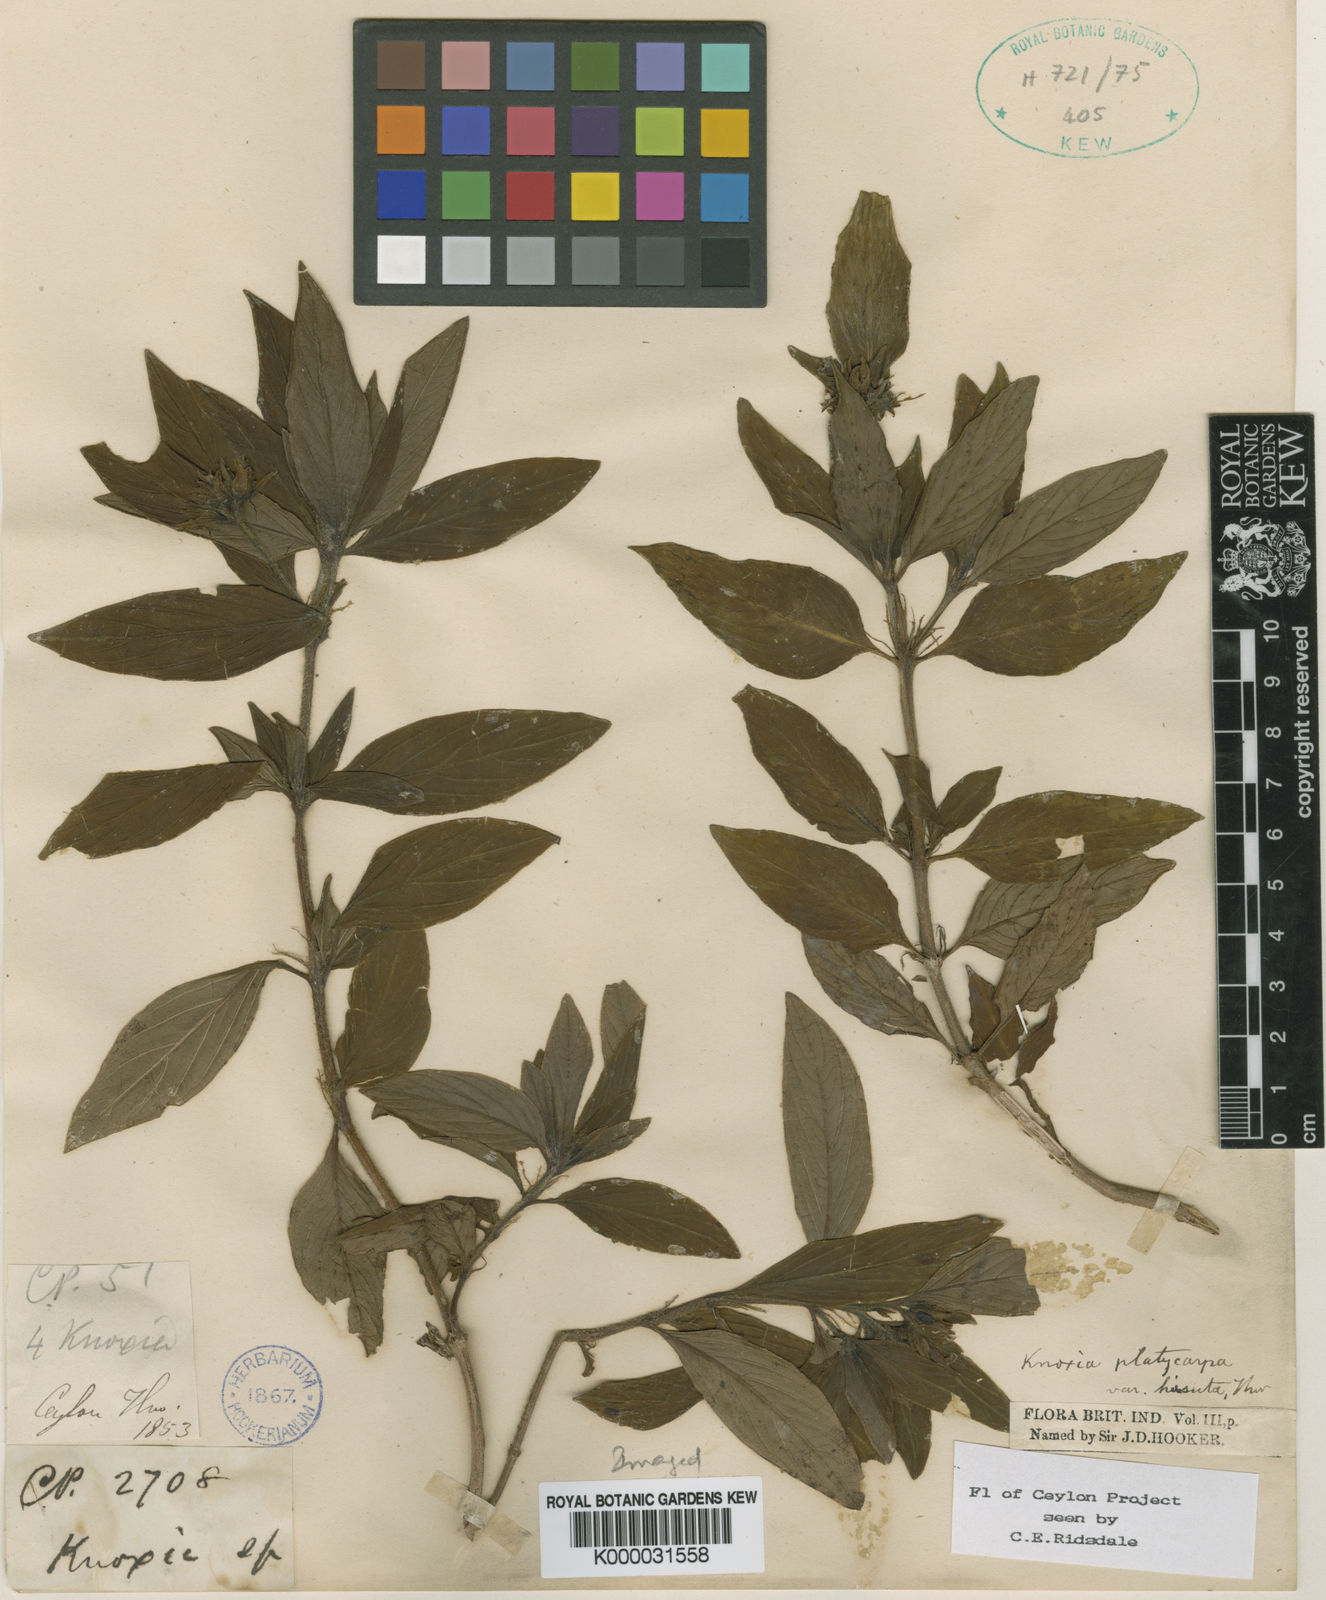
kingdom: Plantae
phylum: Tracheophyta
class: Magnoliopsida
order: Gentianales
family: Rubiaceae
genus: Knoxia
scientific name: Knoxia platycarpa
